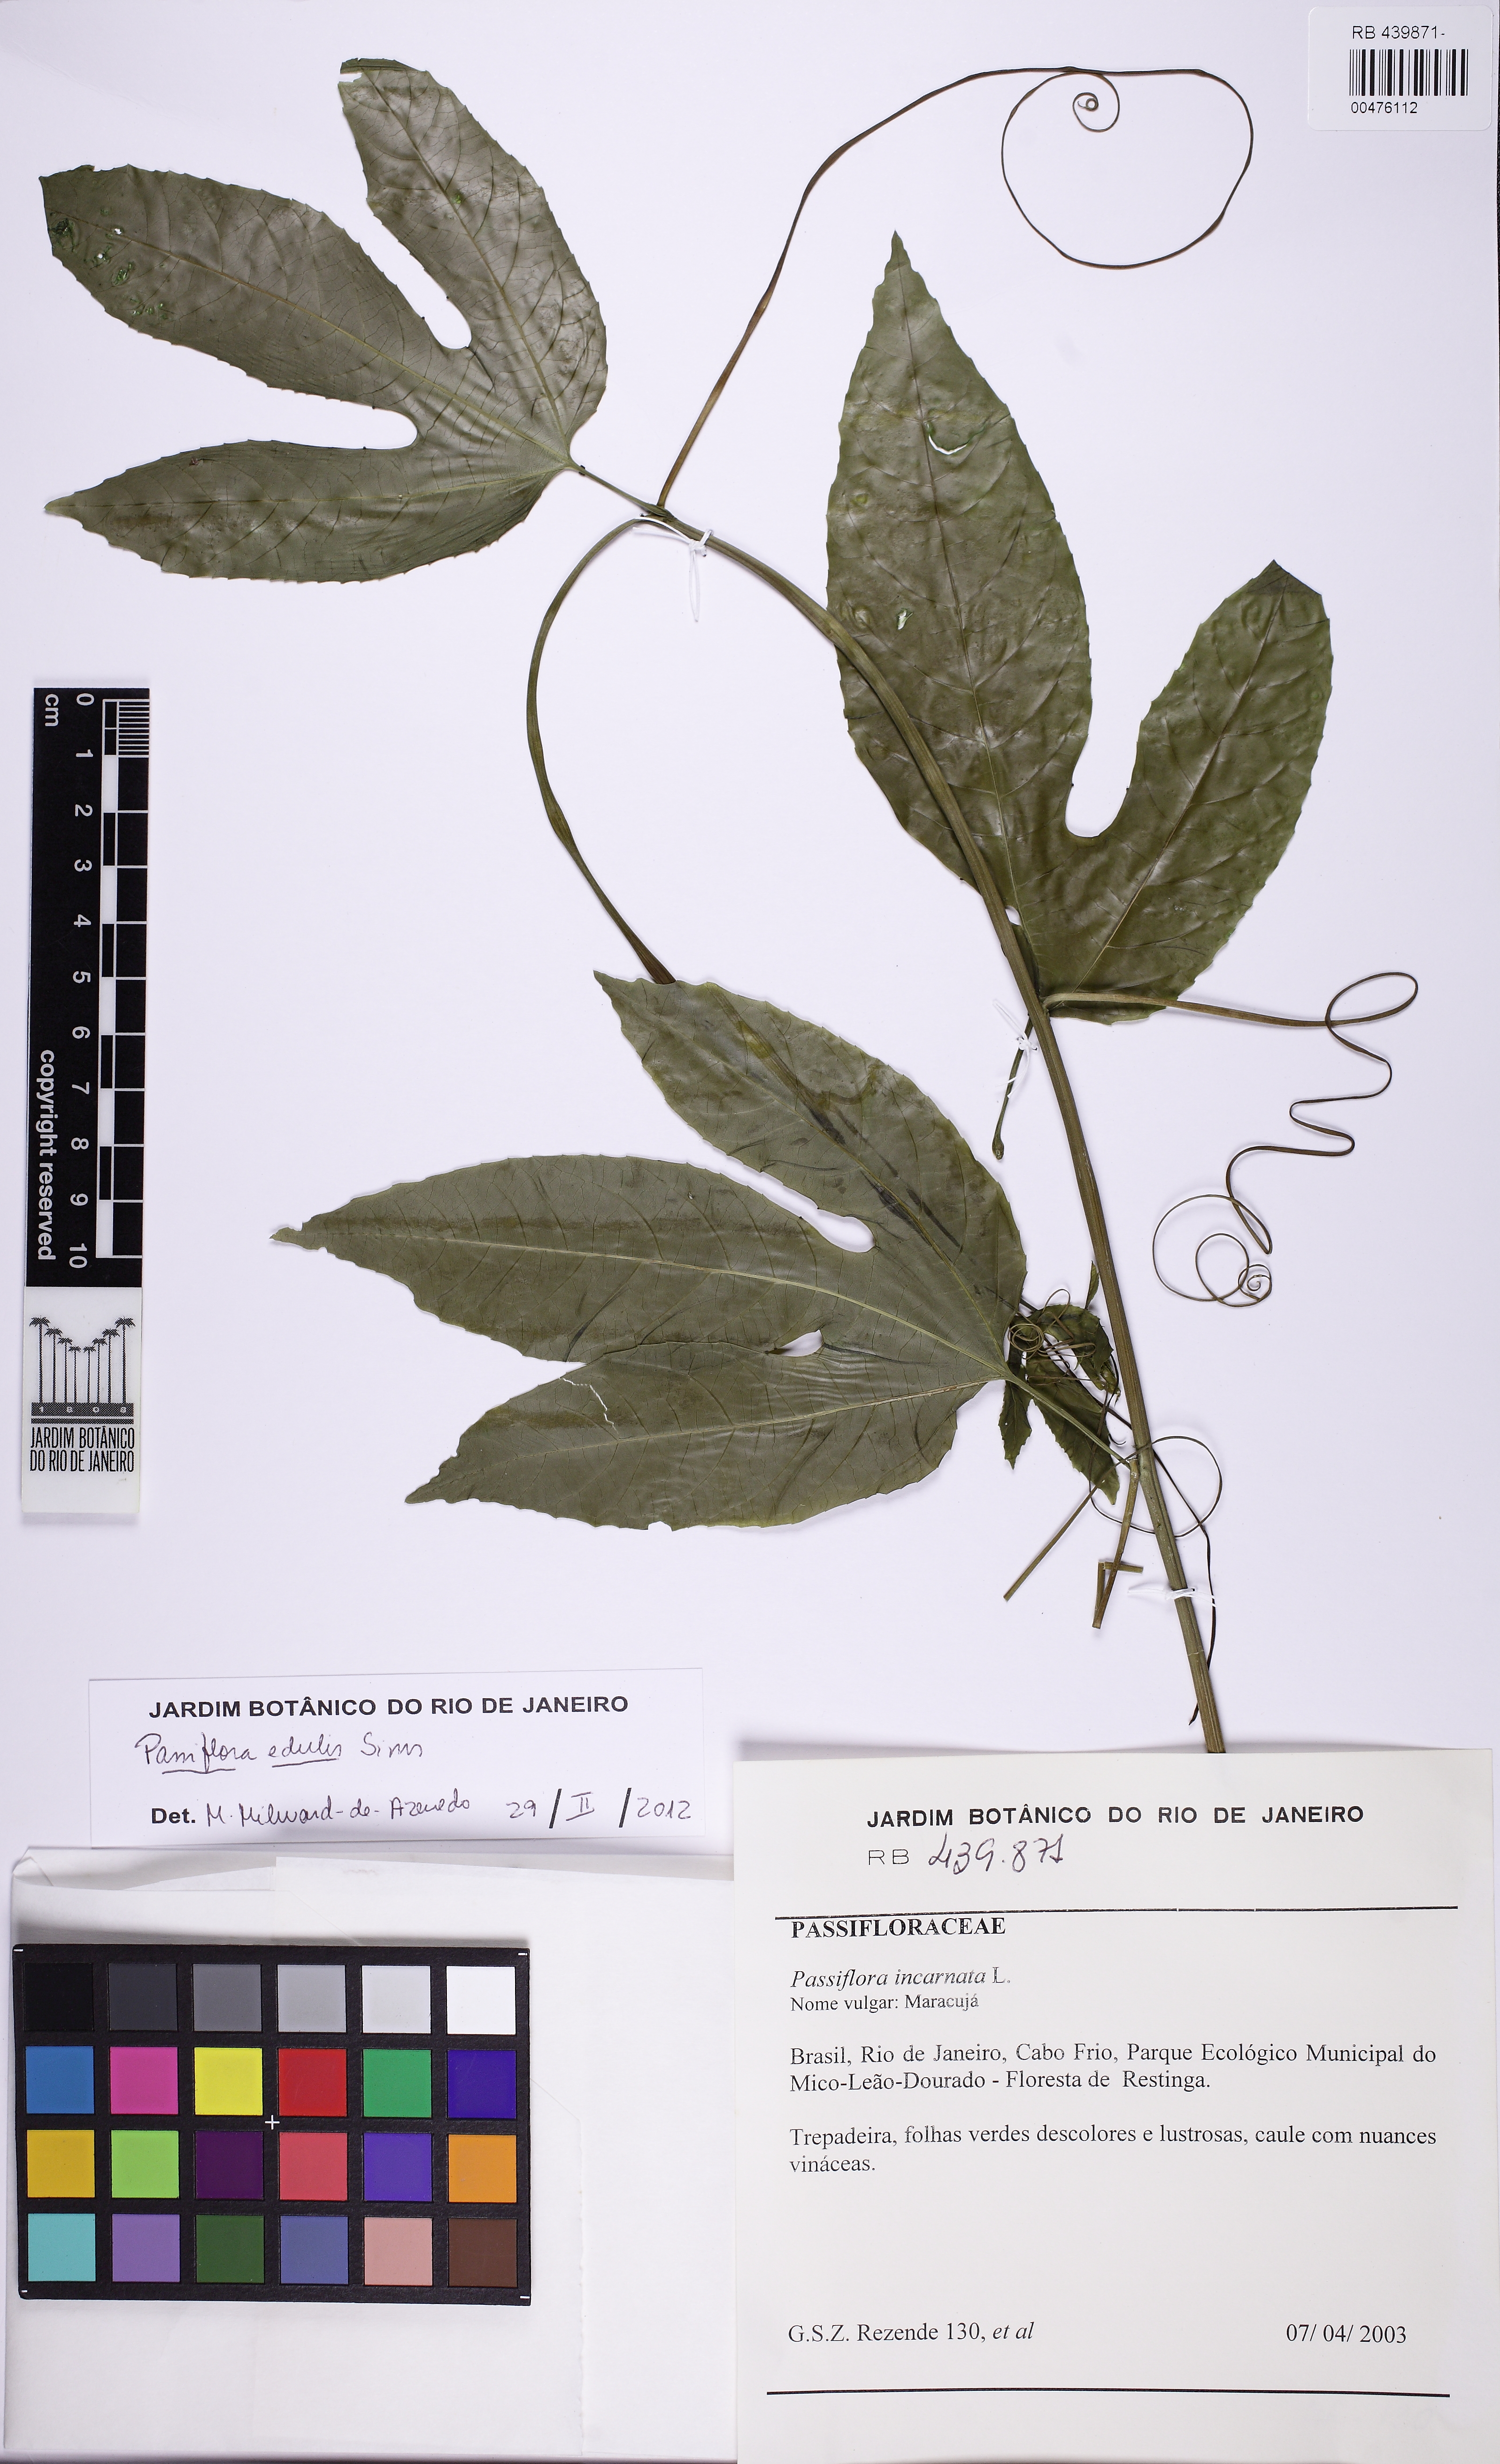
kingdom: Plantae
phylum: Tracheophyta
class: Magnoliopsida
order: Malpighiales
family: Passifloraceae
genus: Passiflora
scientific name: Passiflora incarnata
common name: Apricot-vine
